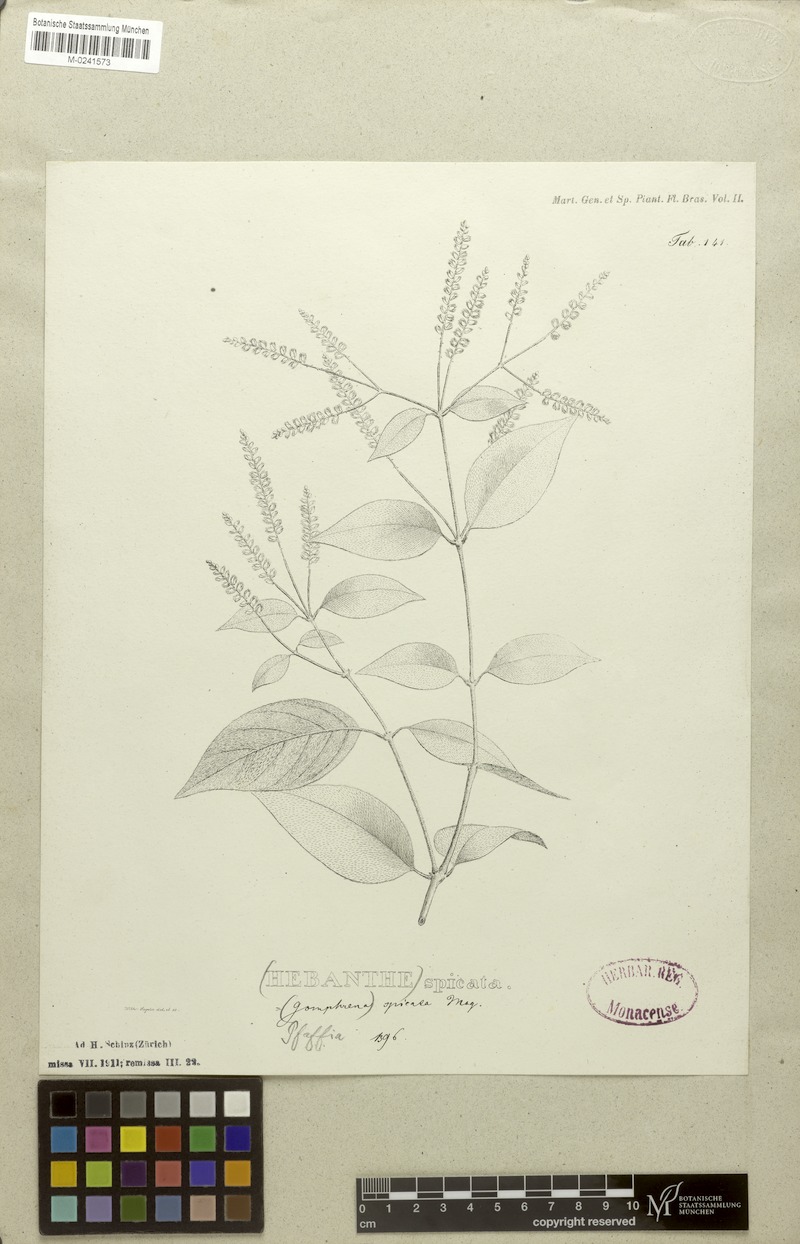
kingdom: Plantae
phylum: Tracheophyta
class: Magnoliopsida
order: Caryophyllales
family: Amaranthaceae
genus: Hebanthe
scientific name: Hebanthe spicata
